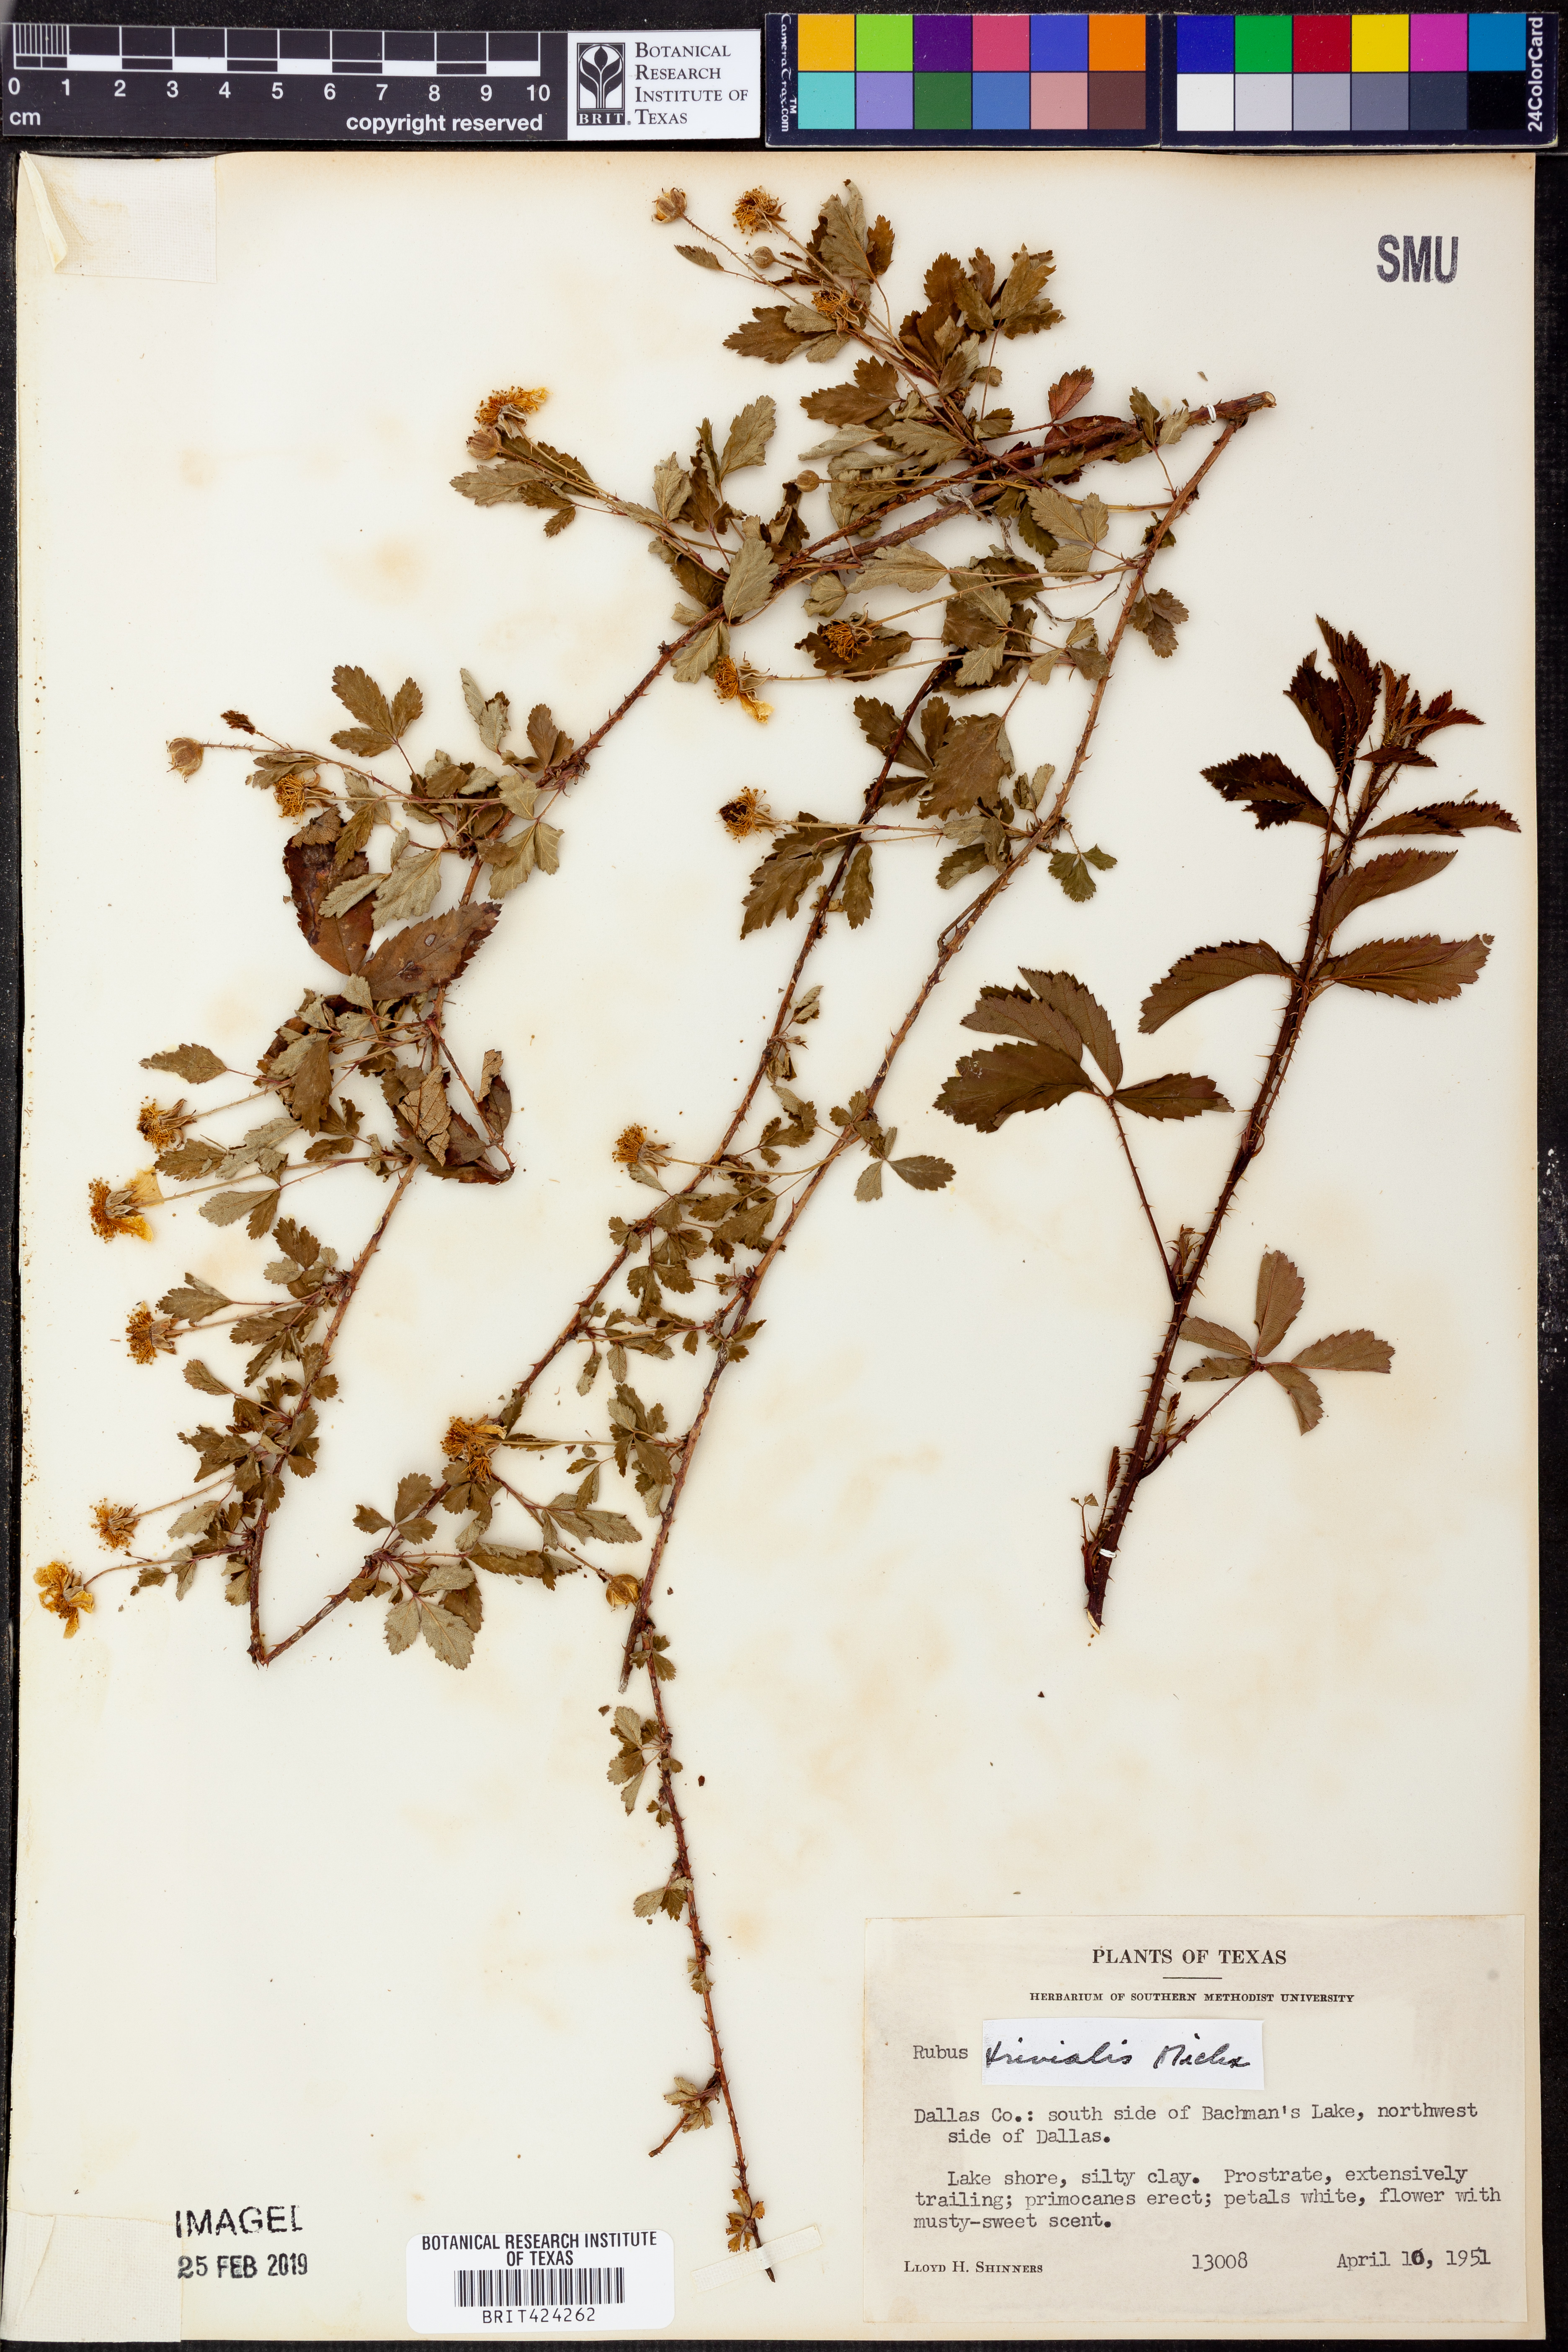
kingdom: Plantae
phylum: Tracheophyta
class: Magnoliopsida
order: Rosales
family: Rosaceae
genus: Rubus
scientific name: Rubus trivialis
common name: Southern dewberry
